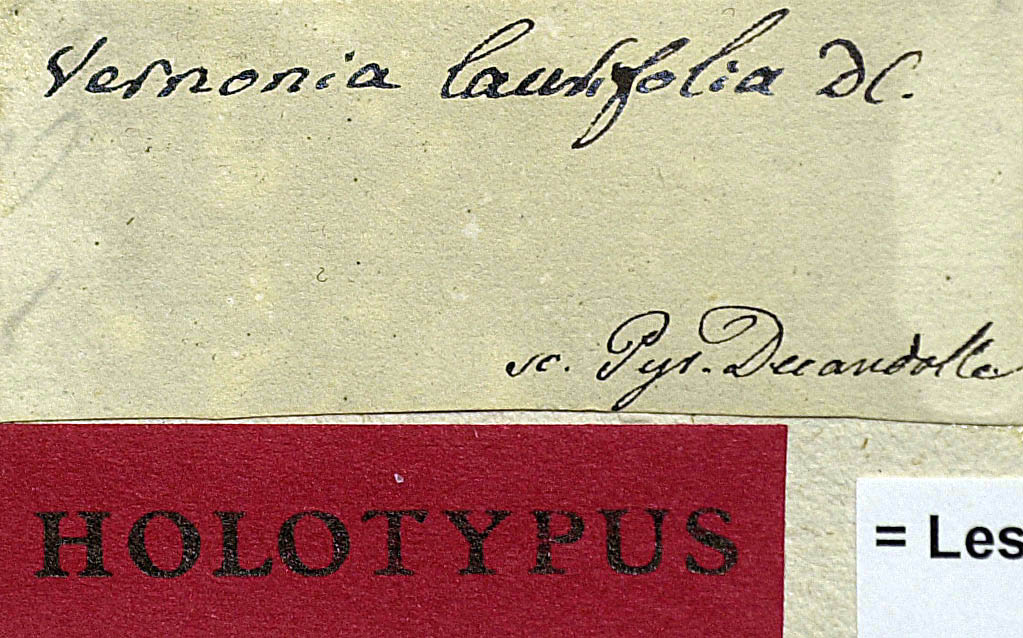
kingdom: Plantae
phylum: Tracheophyta
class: Magnoliopsida
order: Asterales
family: Asteraceae
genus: Lessingianthus
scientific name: Lessingianthus laurifolius
